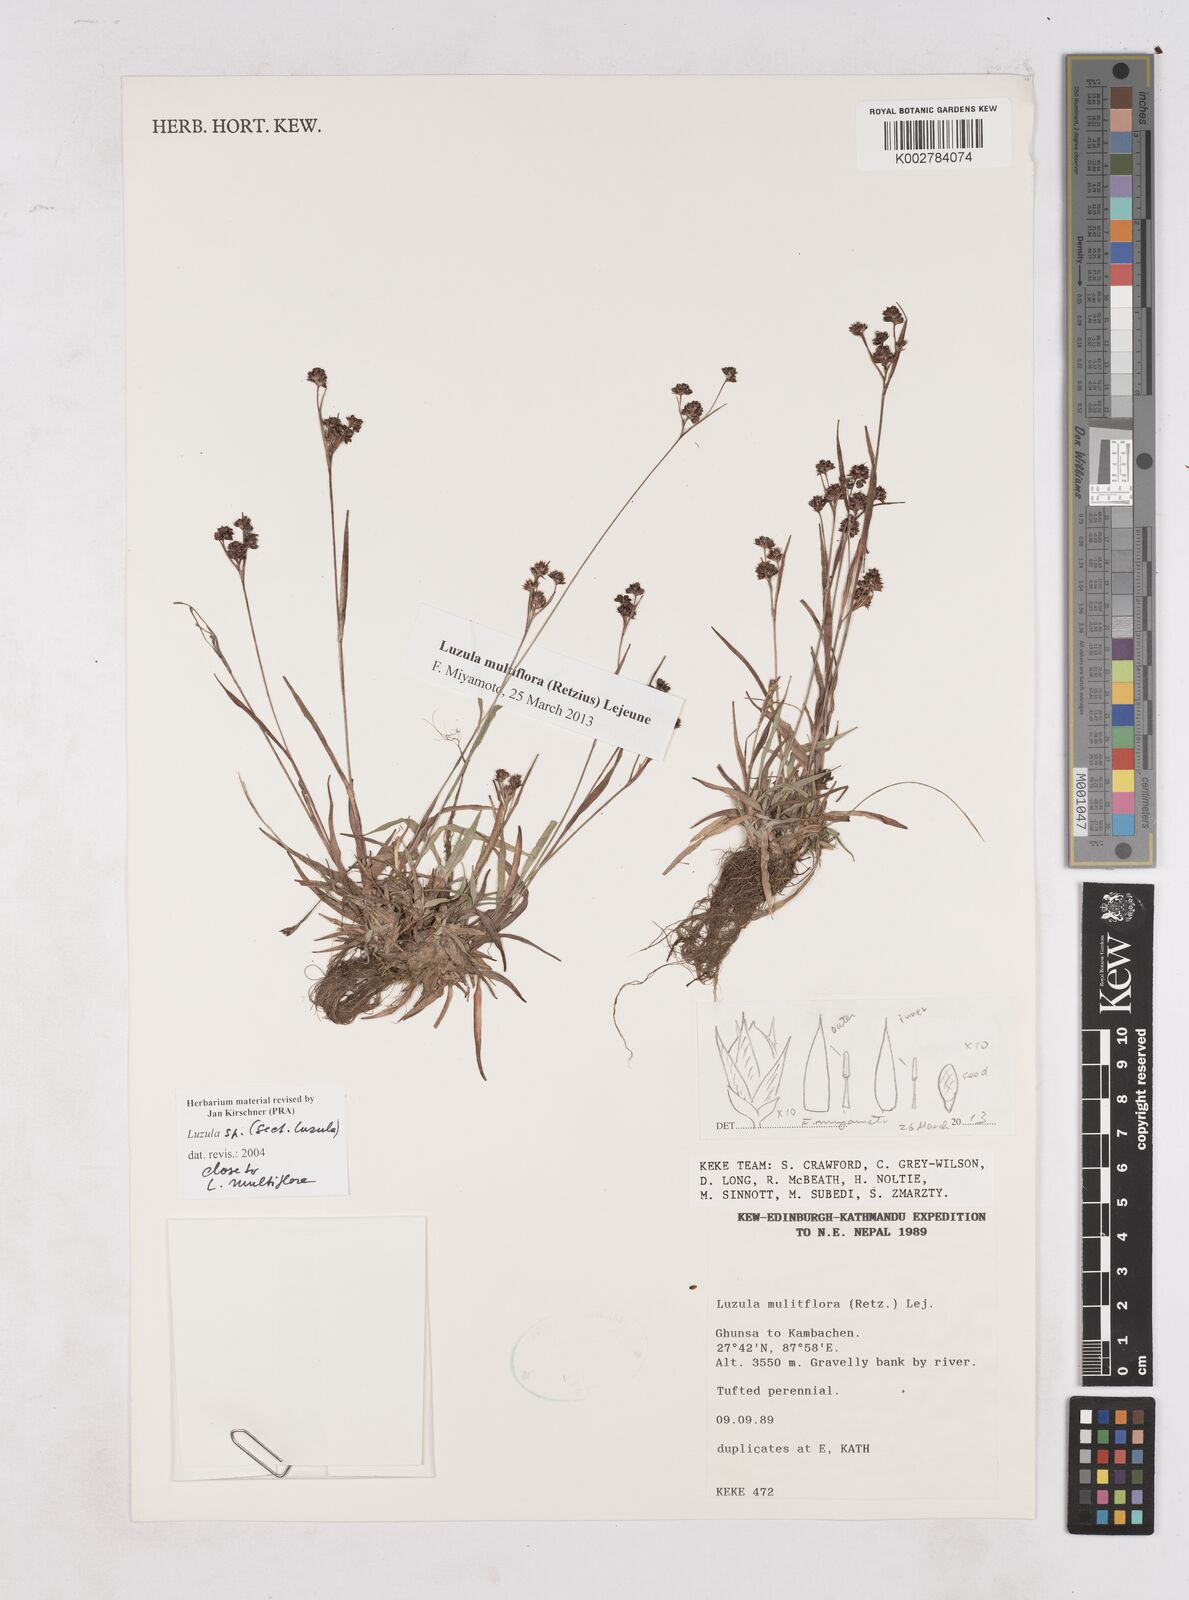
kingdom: Plantae
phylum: Tracheophyta
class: Liliopsida
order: Poales
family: Juncaceae
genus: Luzula
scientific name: Luzula campestris
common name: Field wood-rush
